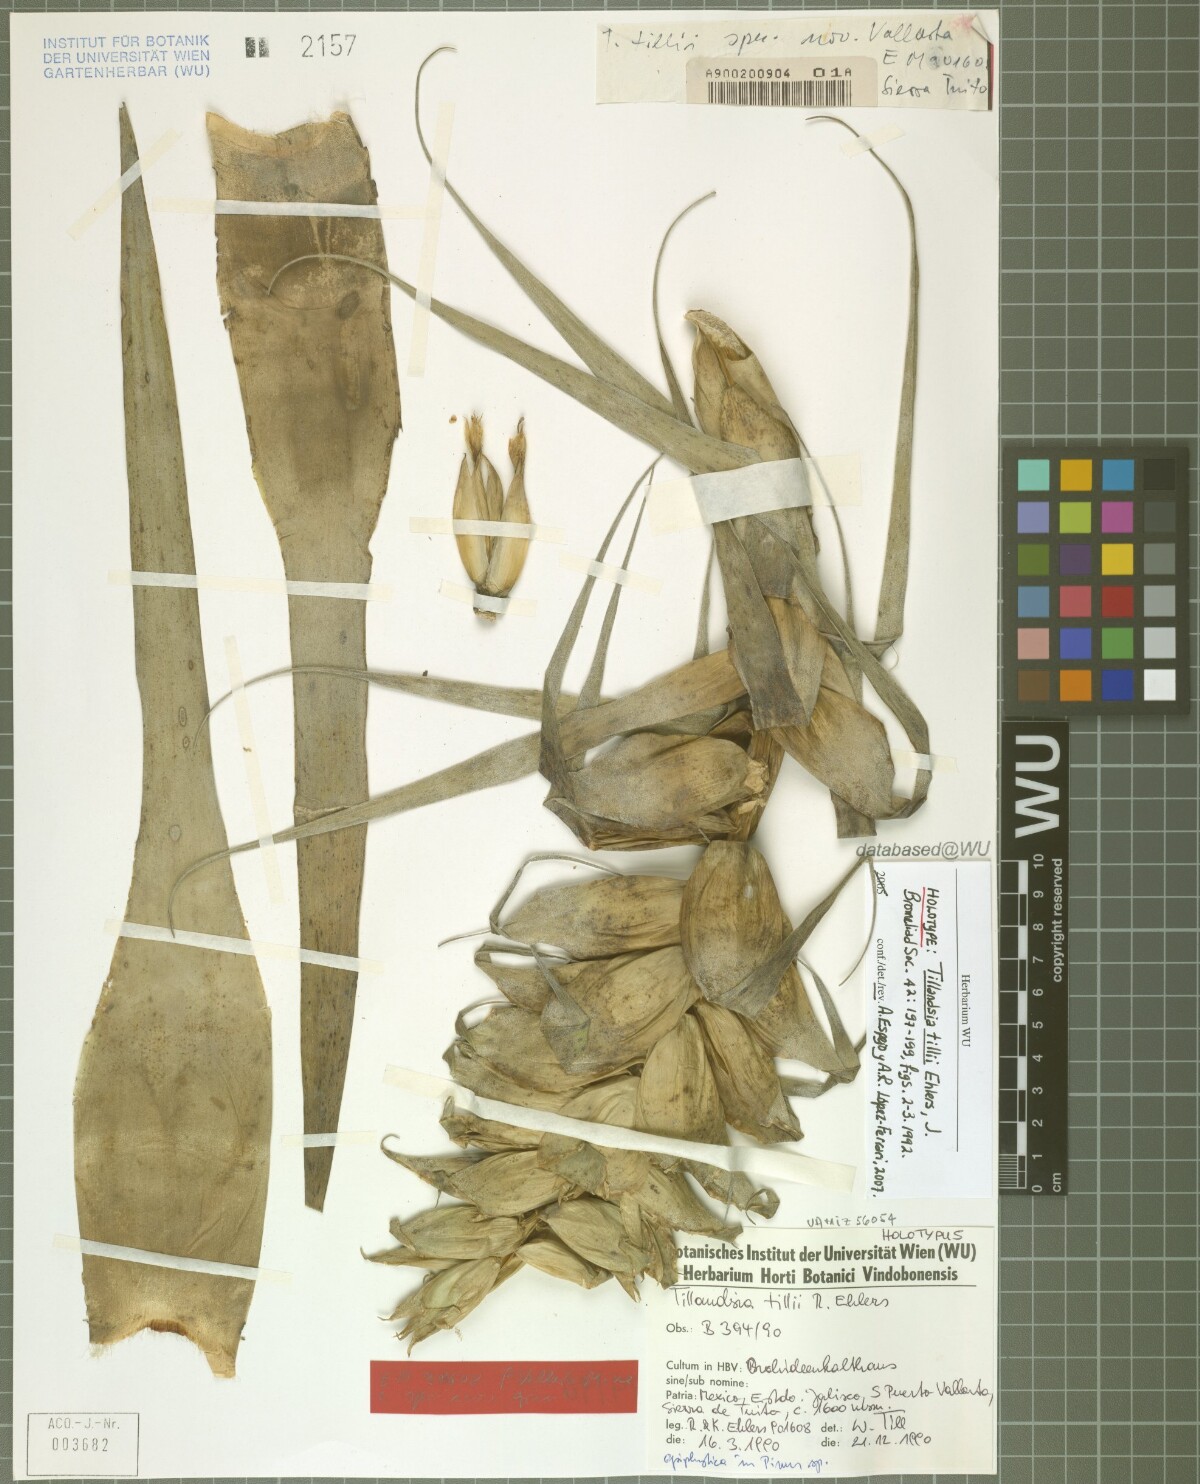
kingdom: Plantae
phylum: Tracheophyta
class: Liliopsida
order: Poales
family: Bromeliaceae
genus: Tillandsia
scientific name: Tillandsia tillii
